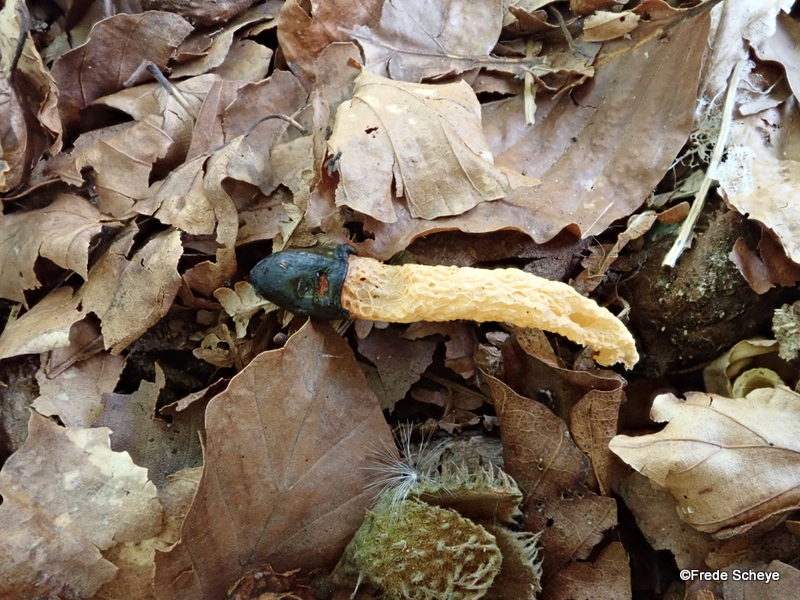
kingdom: Fungi
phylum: Basidiomycota
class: Agaricomycetes
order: Phallales
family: Phallaceae
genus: Mutinus
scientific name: Mutinus caninus
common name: hunde-stinksvamp
